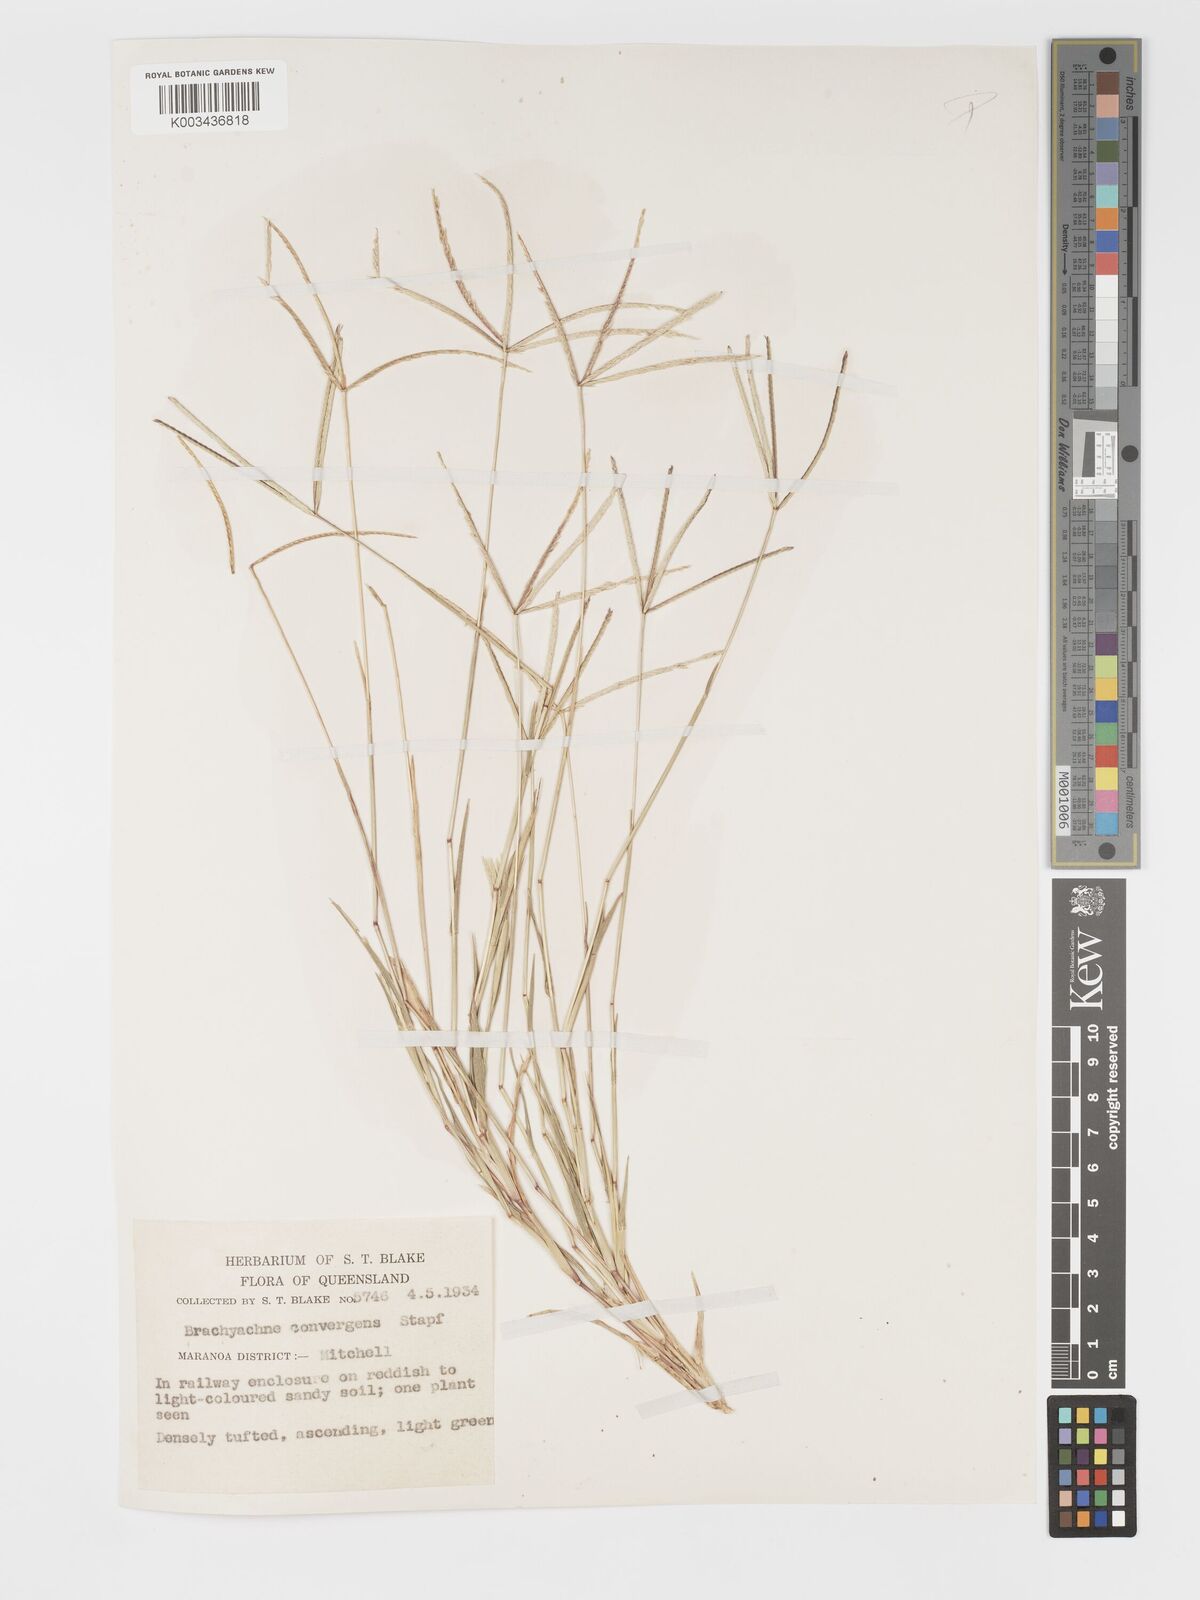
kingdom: Plantae
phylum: Tracheophyta
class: Liliopsida
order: Poales
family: Poaceae
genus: Cynodon
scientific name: Cynodon convergens
